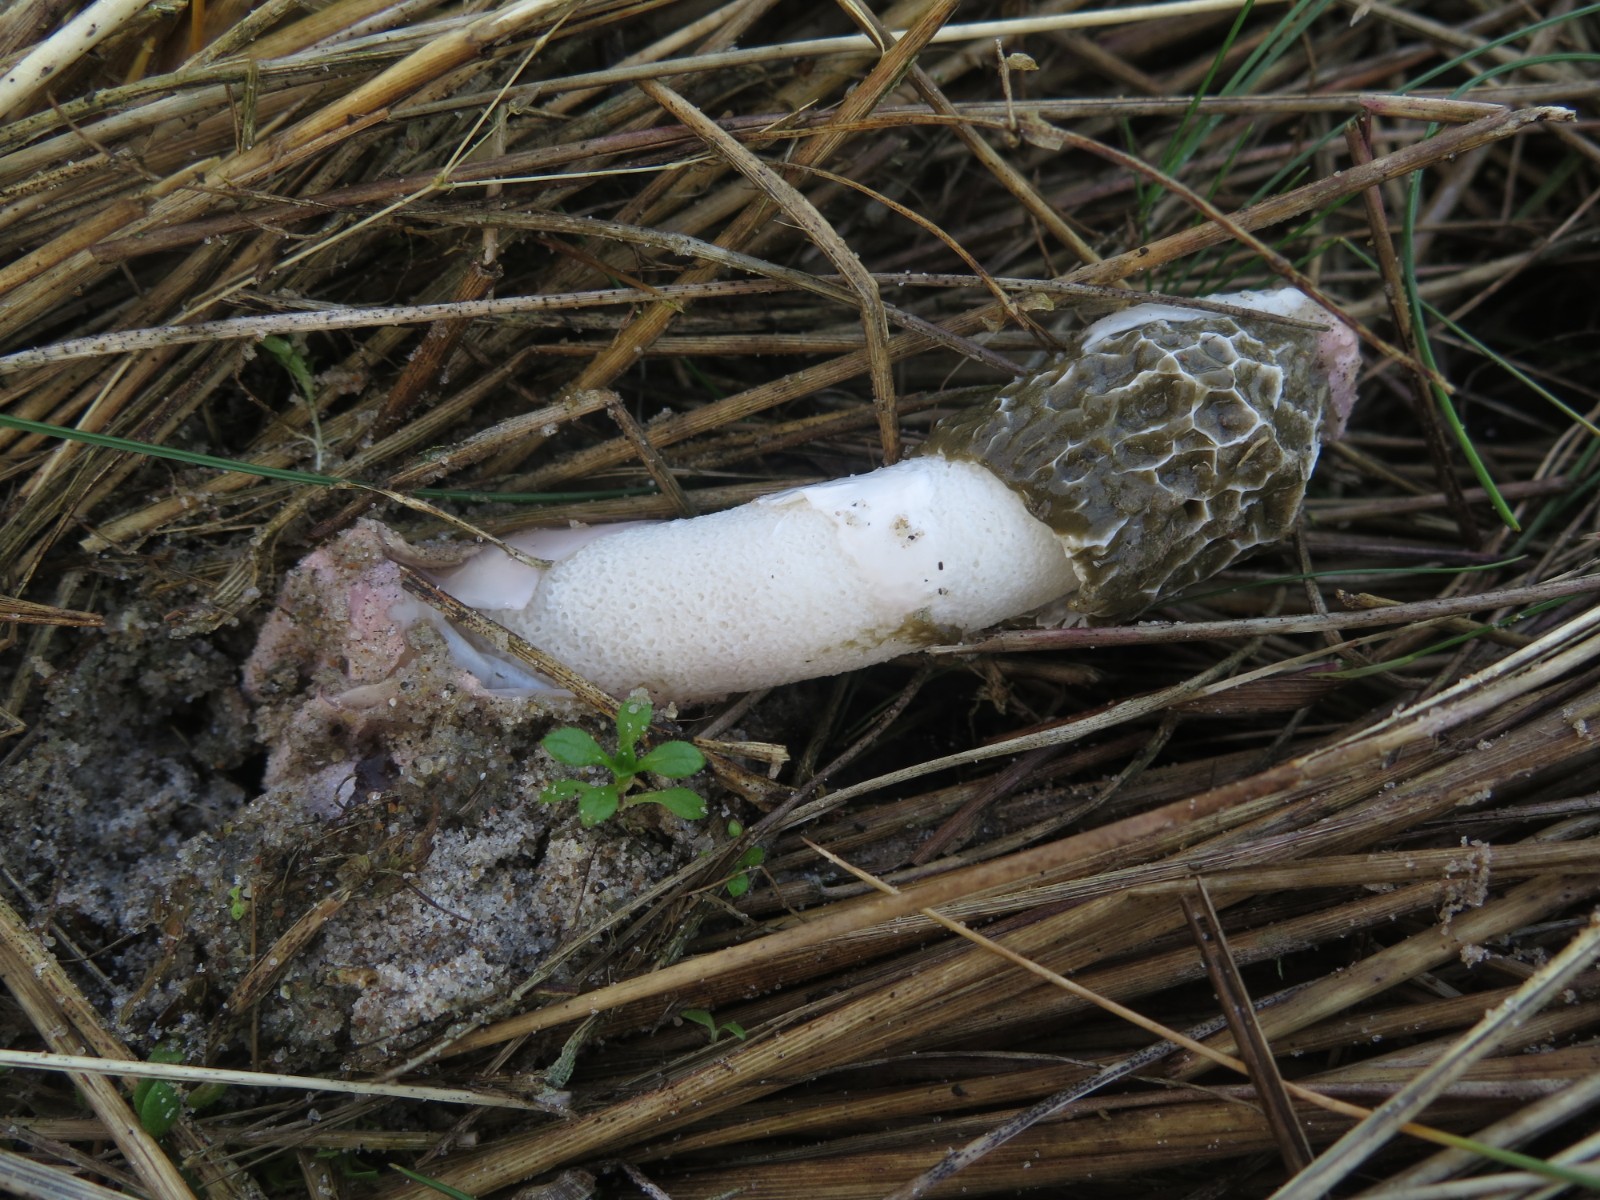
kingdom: Fungi
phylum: Basidiomycota
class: Agaricomycetes
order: Phallales
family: Phallaceae
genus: Phallus
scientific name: Phallus hadriani
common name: sand-stinksvamp
